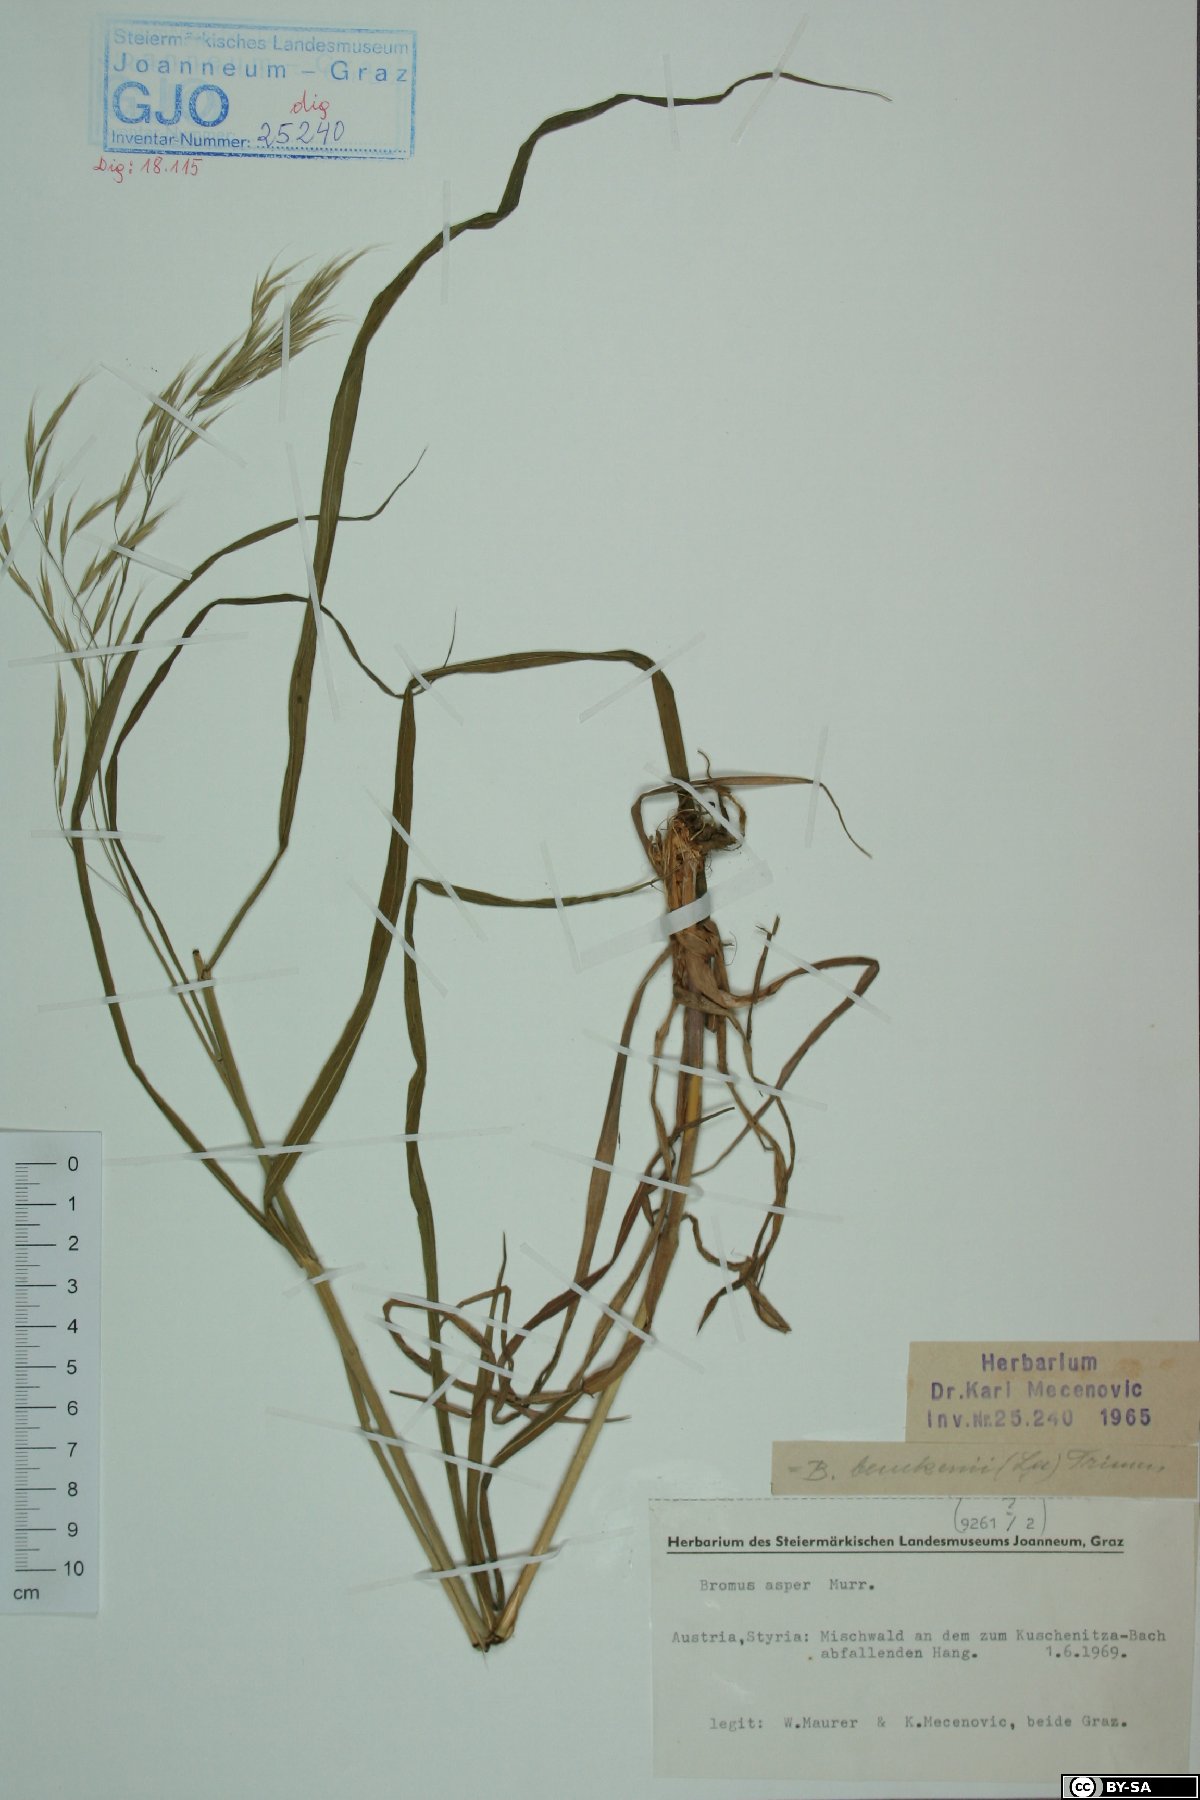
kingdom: Plantae
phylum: Tracheophyta
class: Liliopsida
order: Poales
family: Poaceae
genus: Bromus
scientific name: Bromus ramosus
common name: Hairy brome
